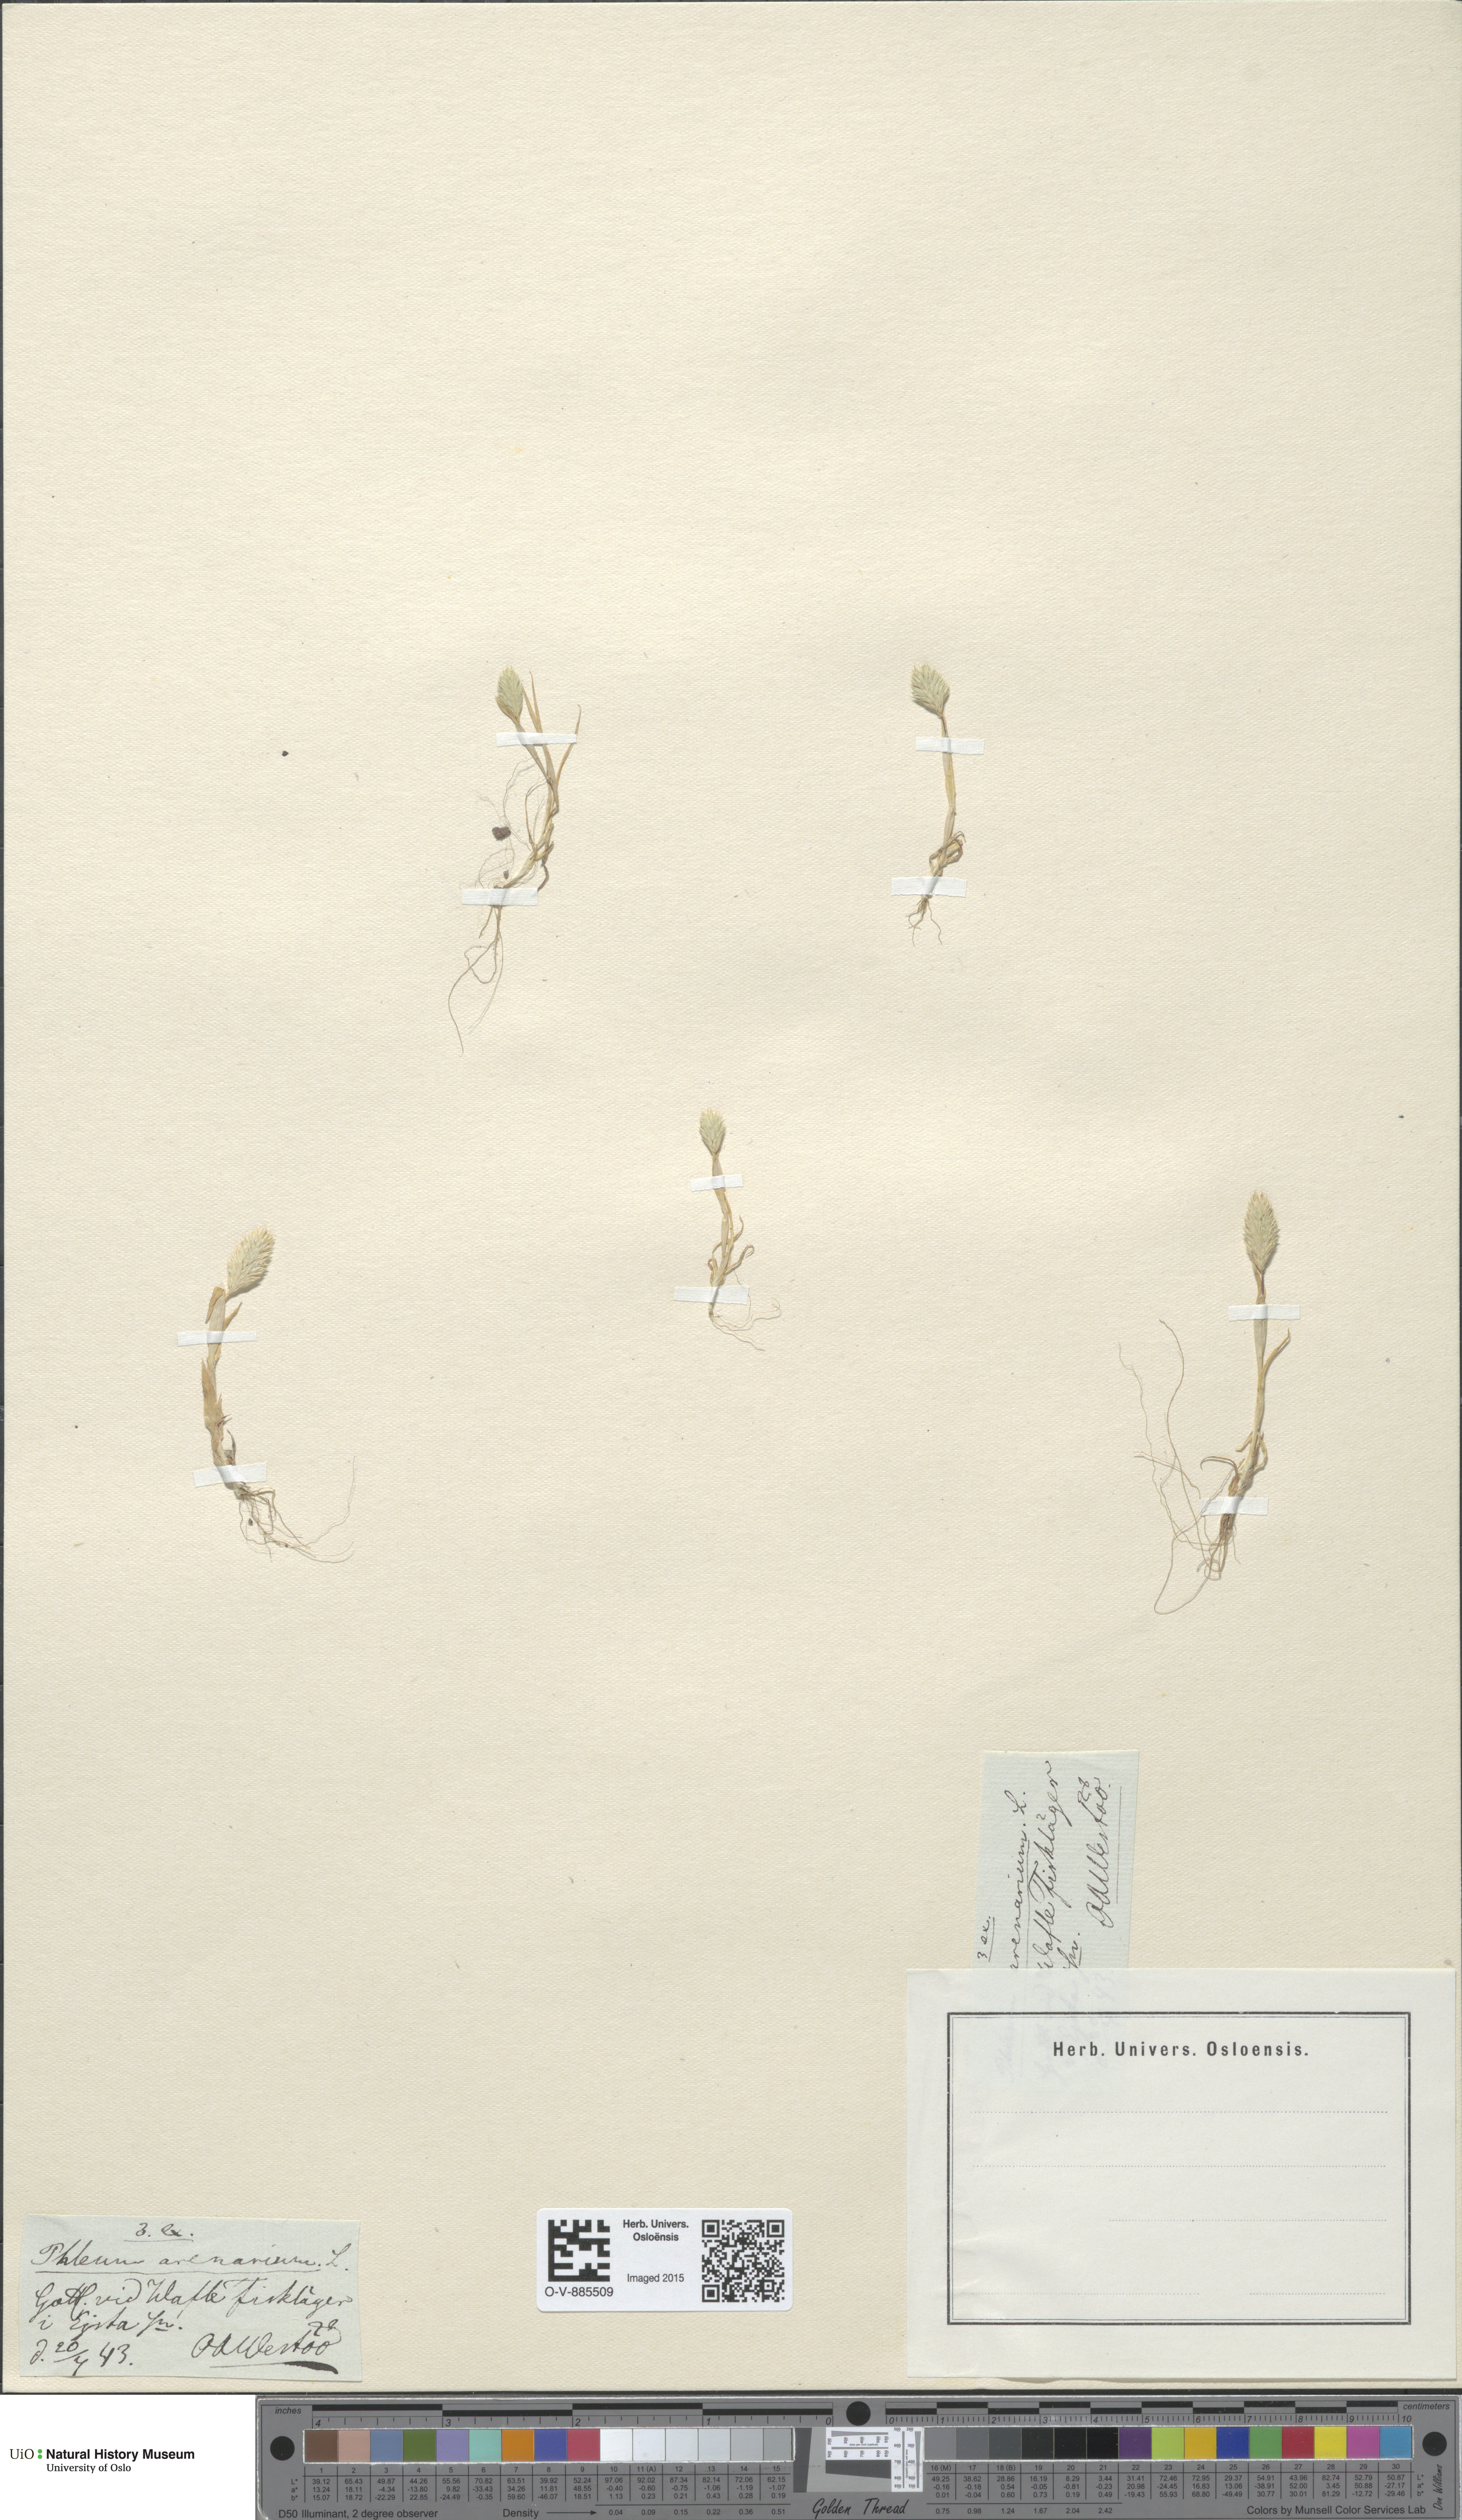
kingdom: Plantae
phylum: Tracheophyta
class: Liliopsida
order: Poales
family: Poaceae
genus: Phleum
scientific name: Phleum arenarium
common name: Sand cat's-tail
